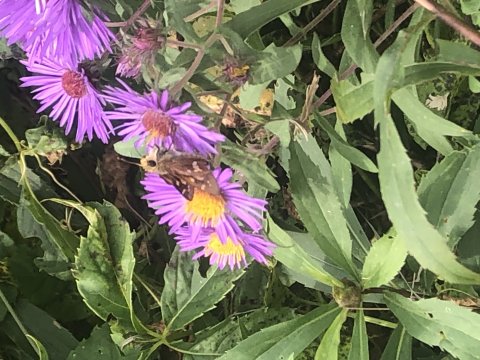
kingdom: Animalia
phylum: Arthropoda
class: Insecta
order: Lepidoptera
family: Hesperiidae
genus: Hesperia
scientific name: Hesperia leonardus
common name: Leonard's Skipper
